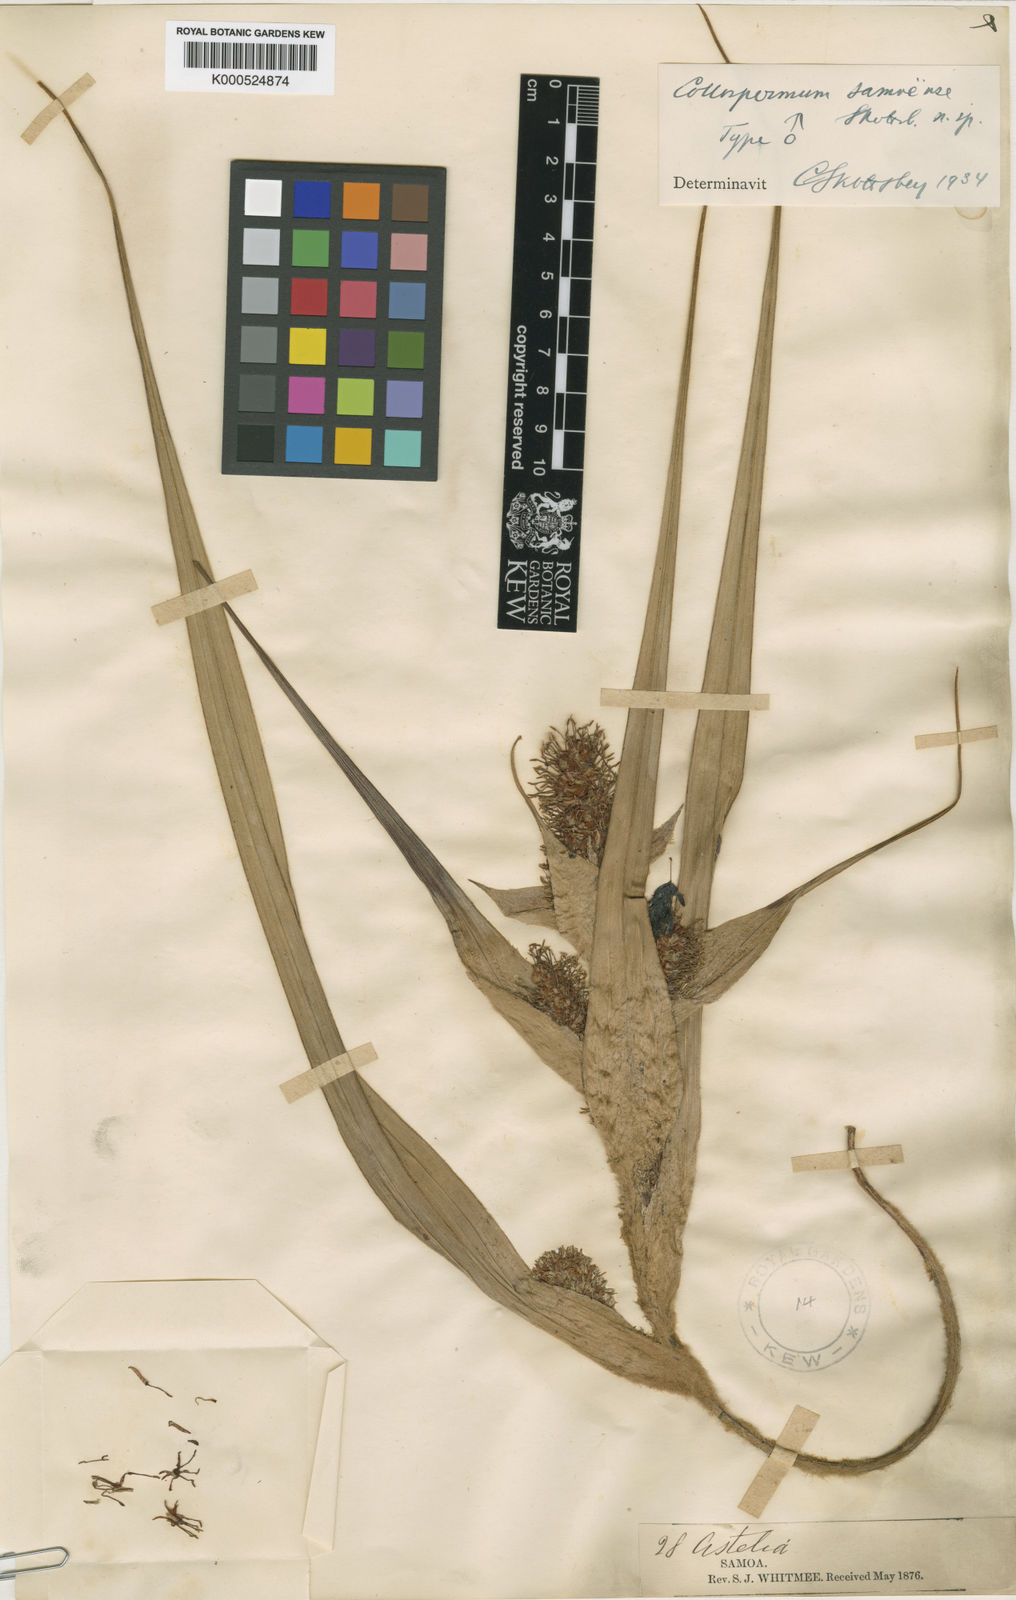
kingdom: Plantae
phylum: Tracheophyta
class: Liliopsida
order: Asparagales
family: Asteliaceae
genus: Astelia
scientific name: Astelia samoense
